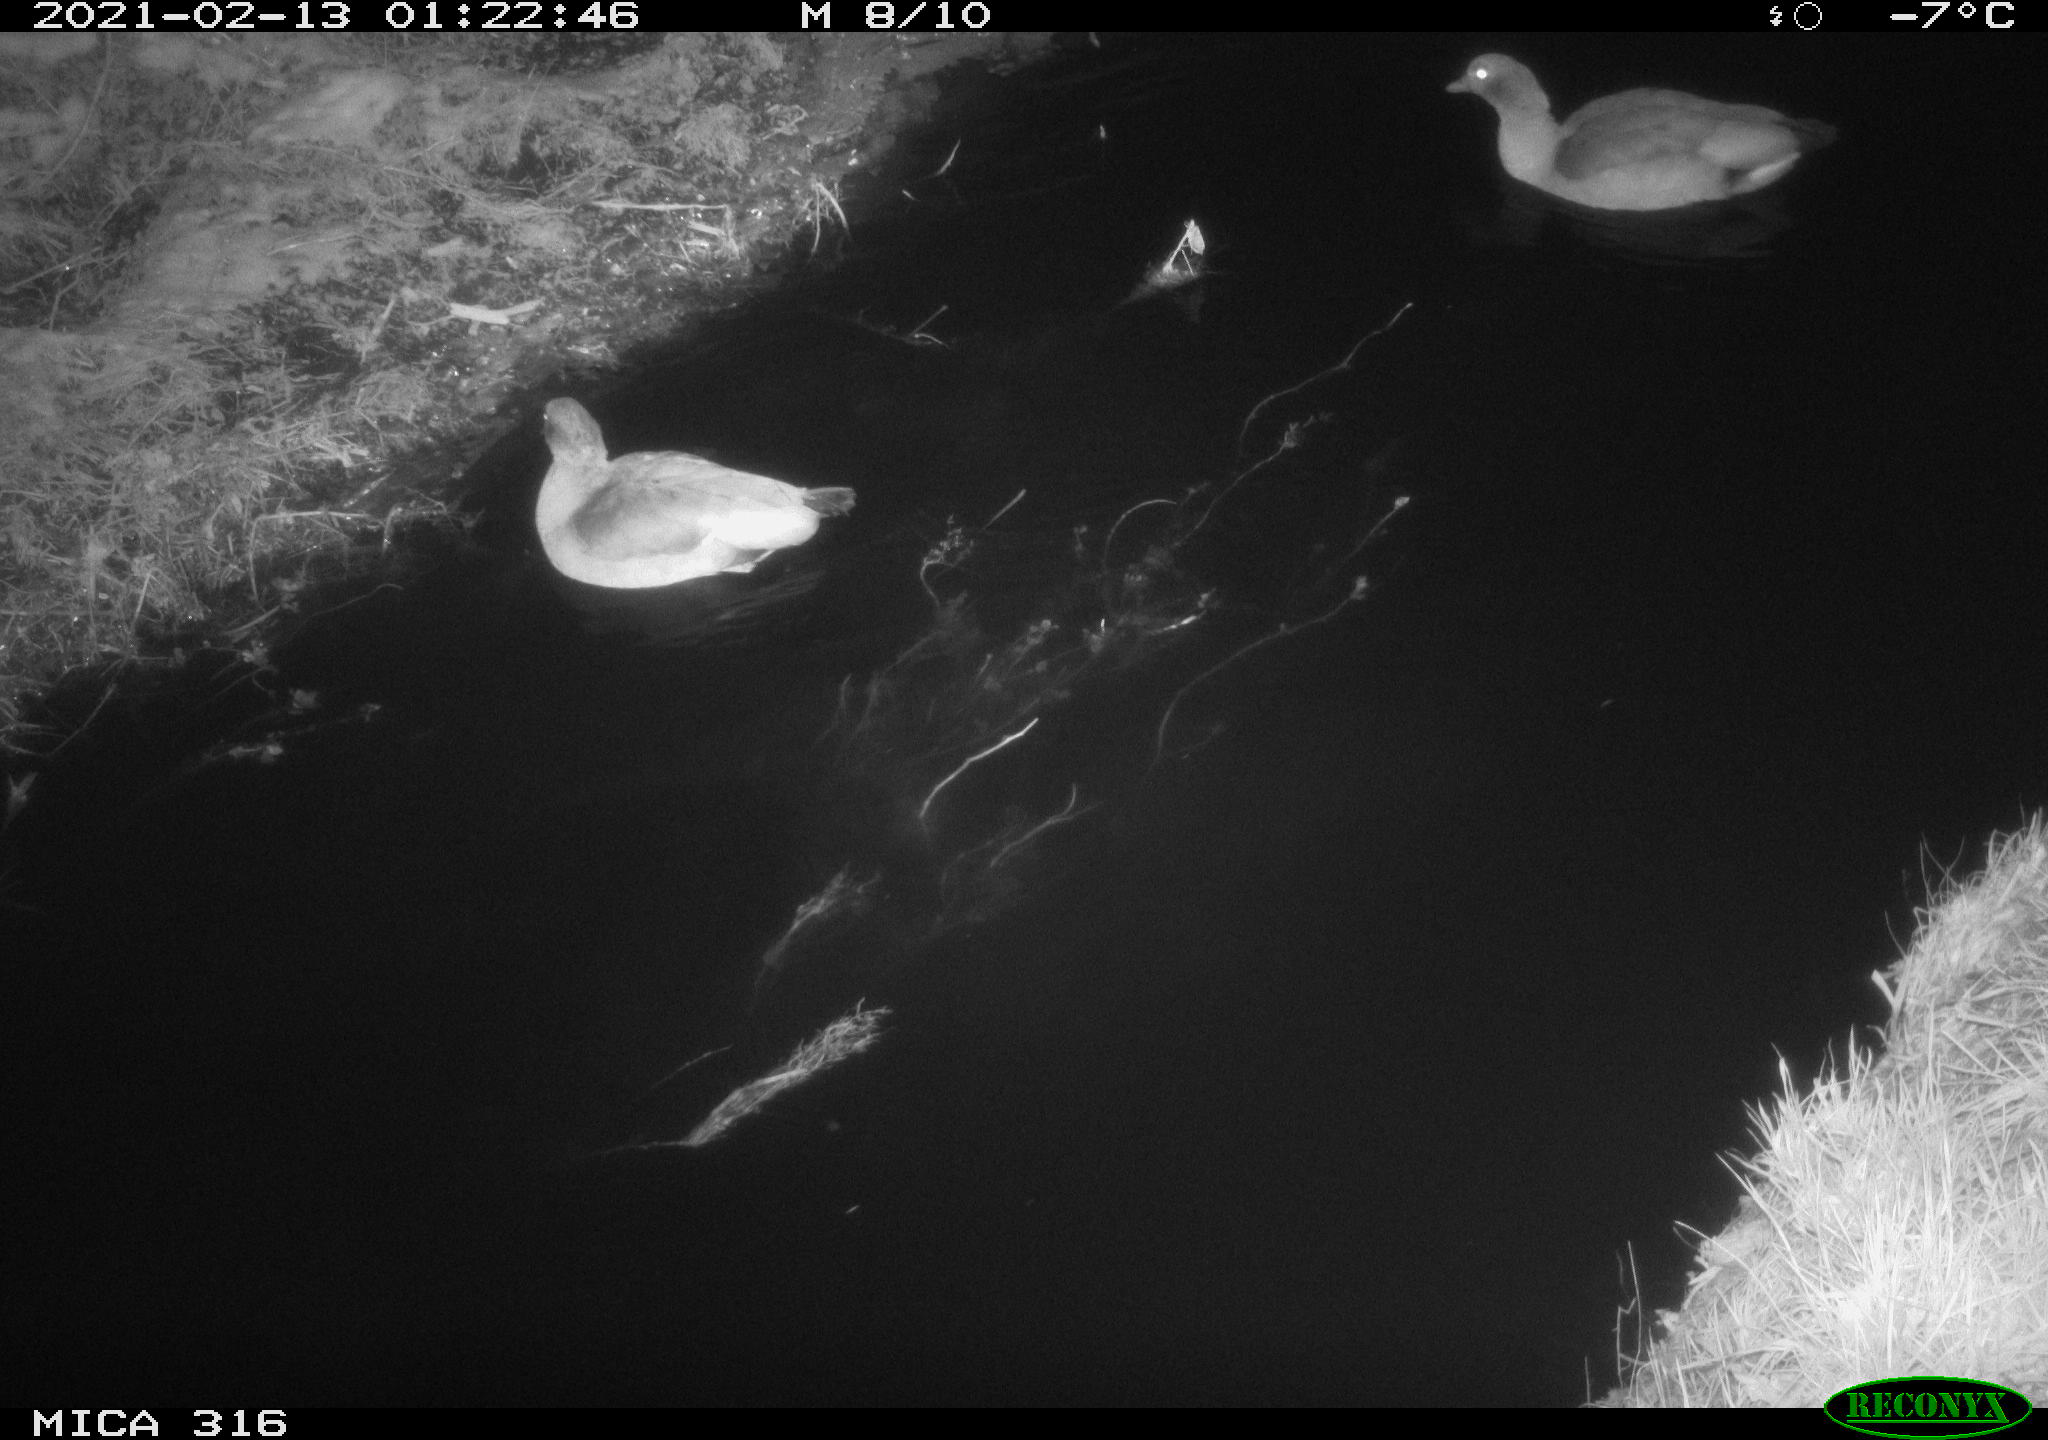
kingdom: Animalia
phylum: Chordata
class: Aves
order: Gruiformes
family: Rallidae
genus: Fulica
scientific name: Fulica atra
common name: Eurasian coot
